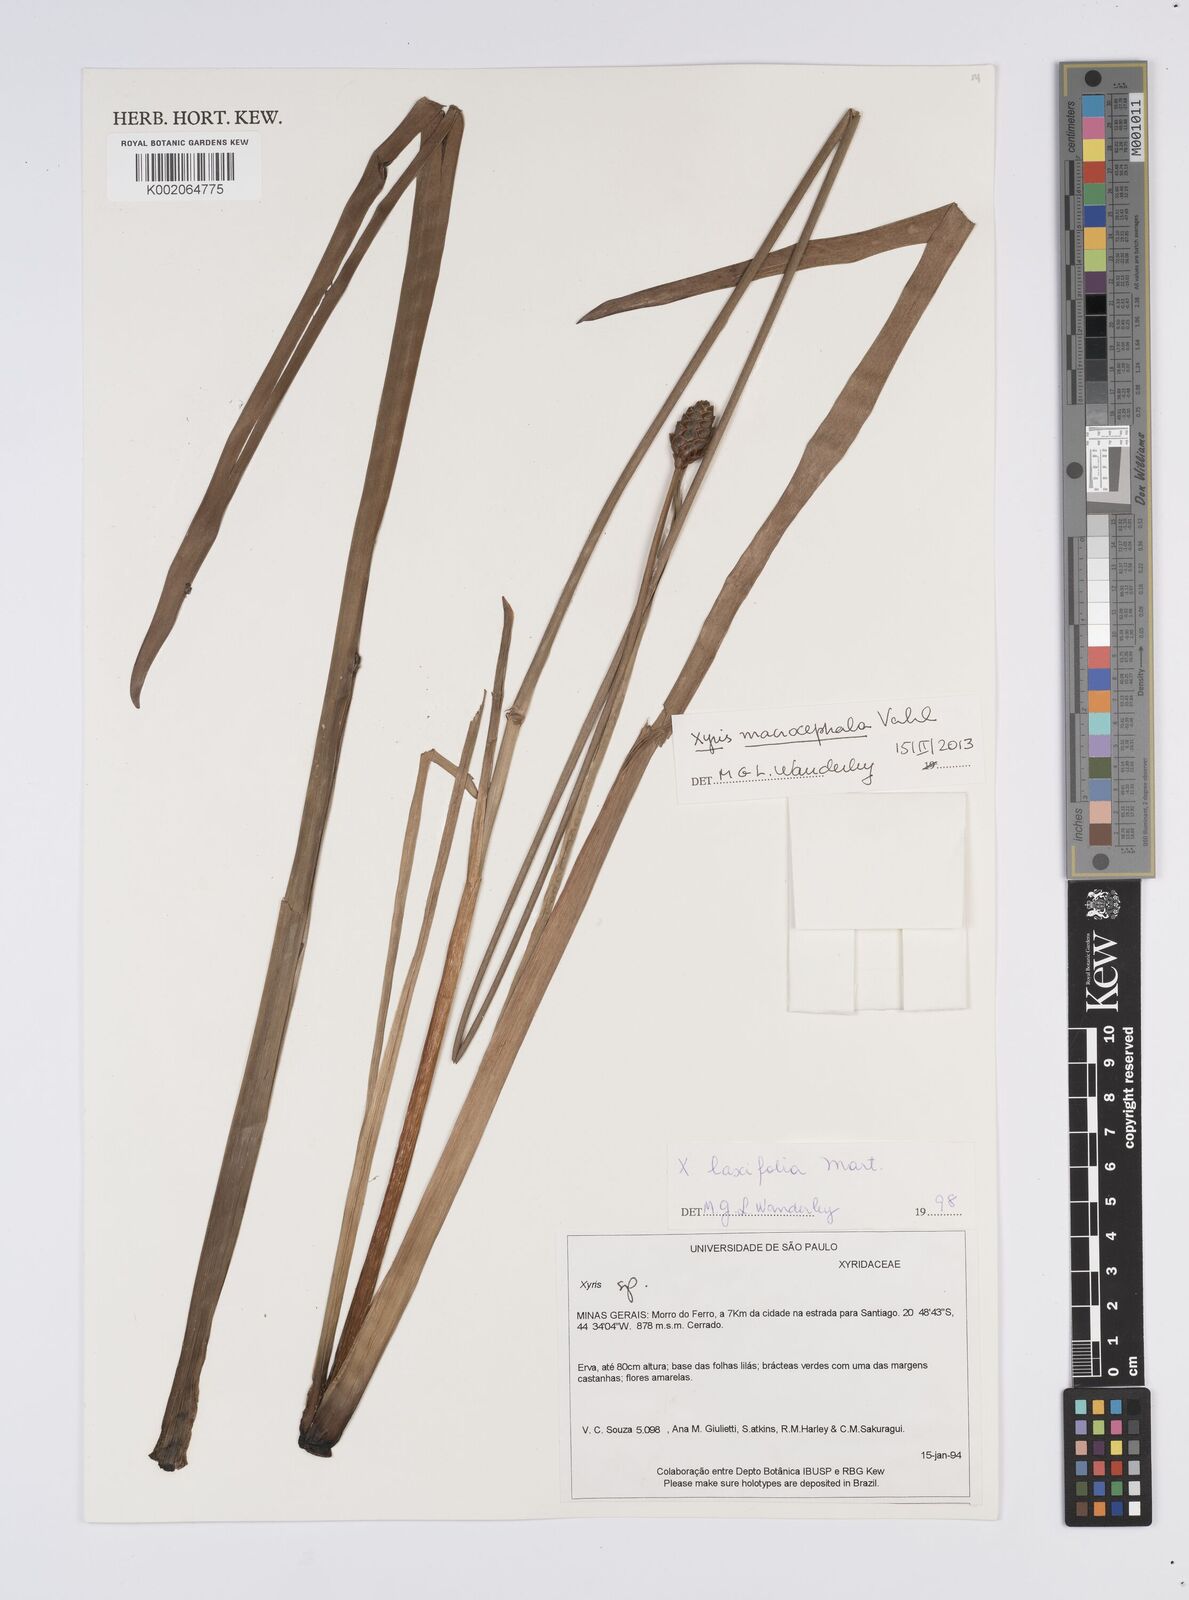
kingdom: Plantae
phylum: Tracheophyta
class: Liliopsida
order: Poales
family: Xyridaceae
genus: Xyris
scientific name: Xyris laxifolia
